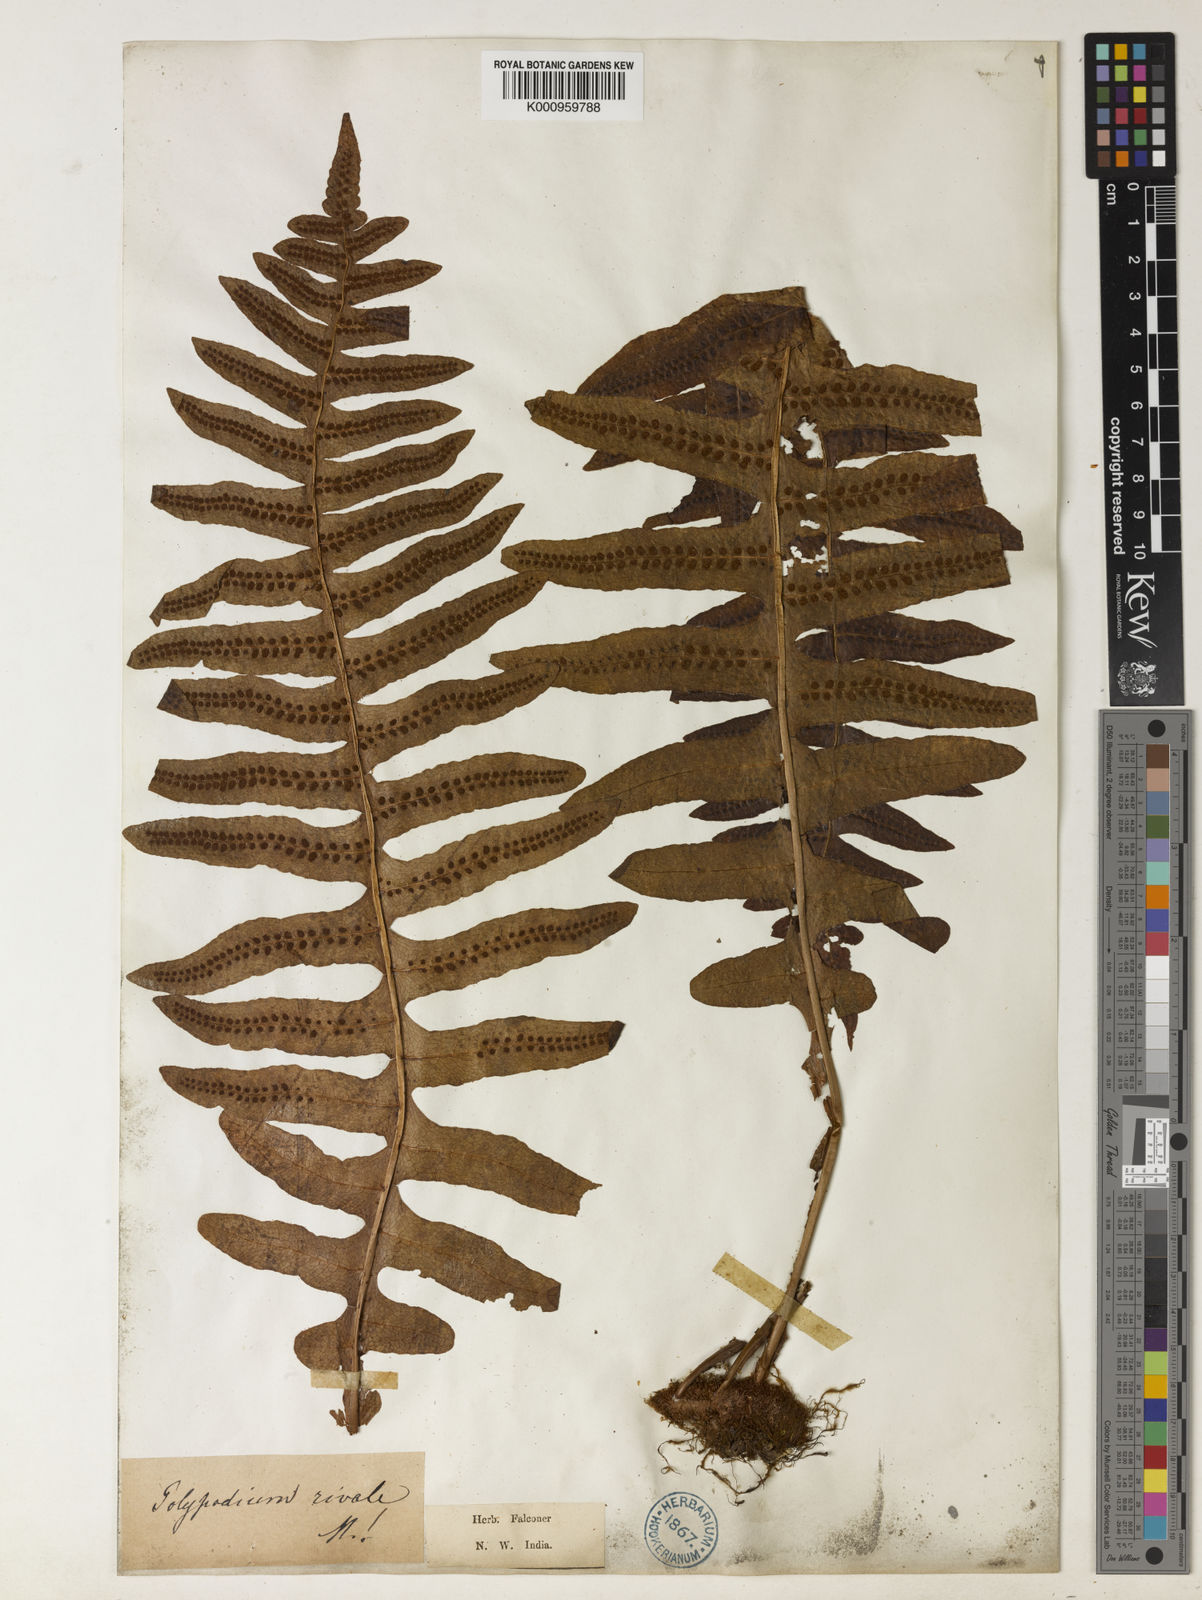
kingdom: Plantae
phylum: Tracheophyta
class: Polypodiopsida
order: Polypodiales
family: Polypodiaceae
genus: Drynaria
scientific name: Drynaria mollis
